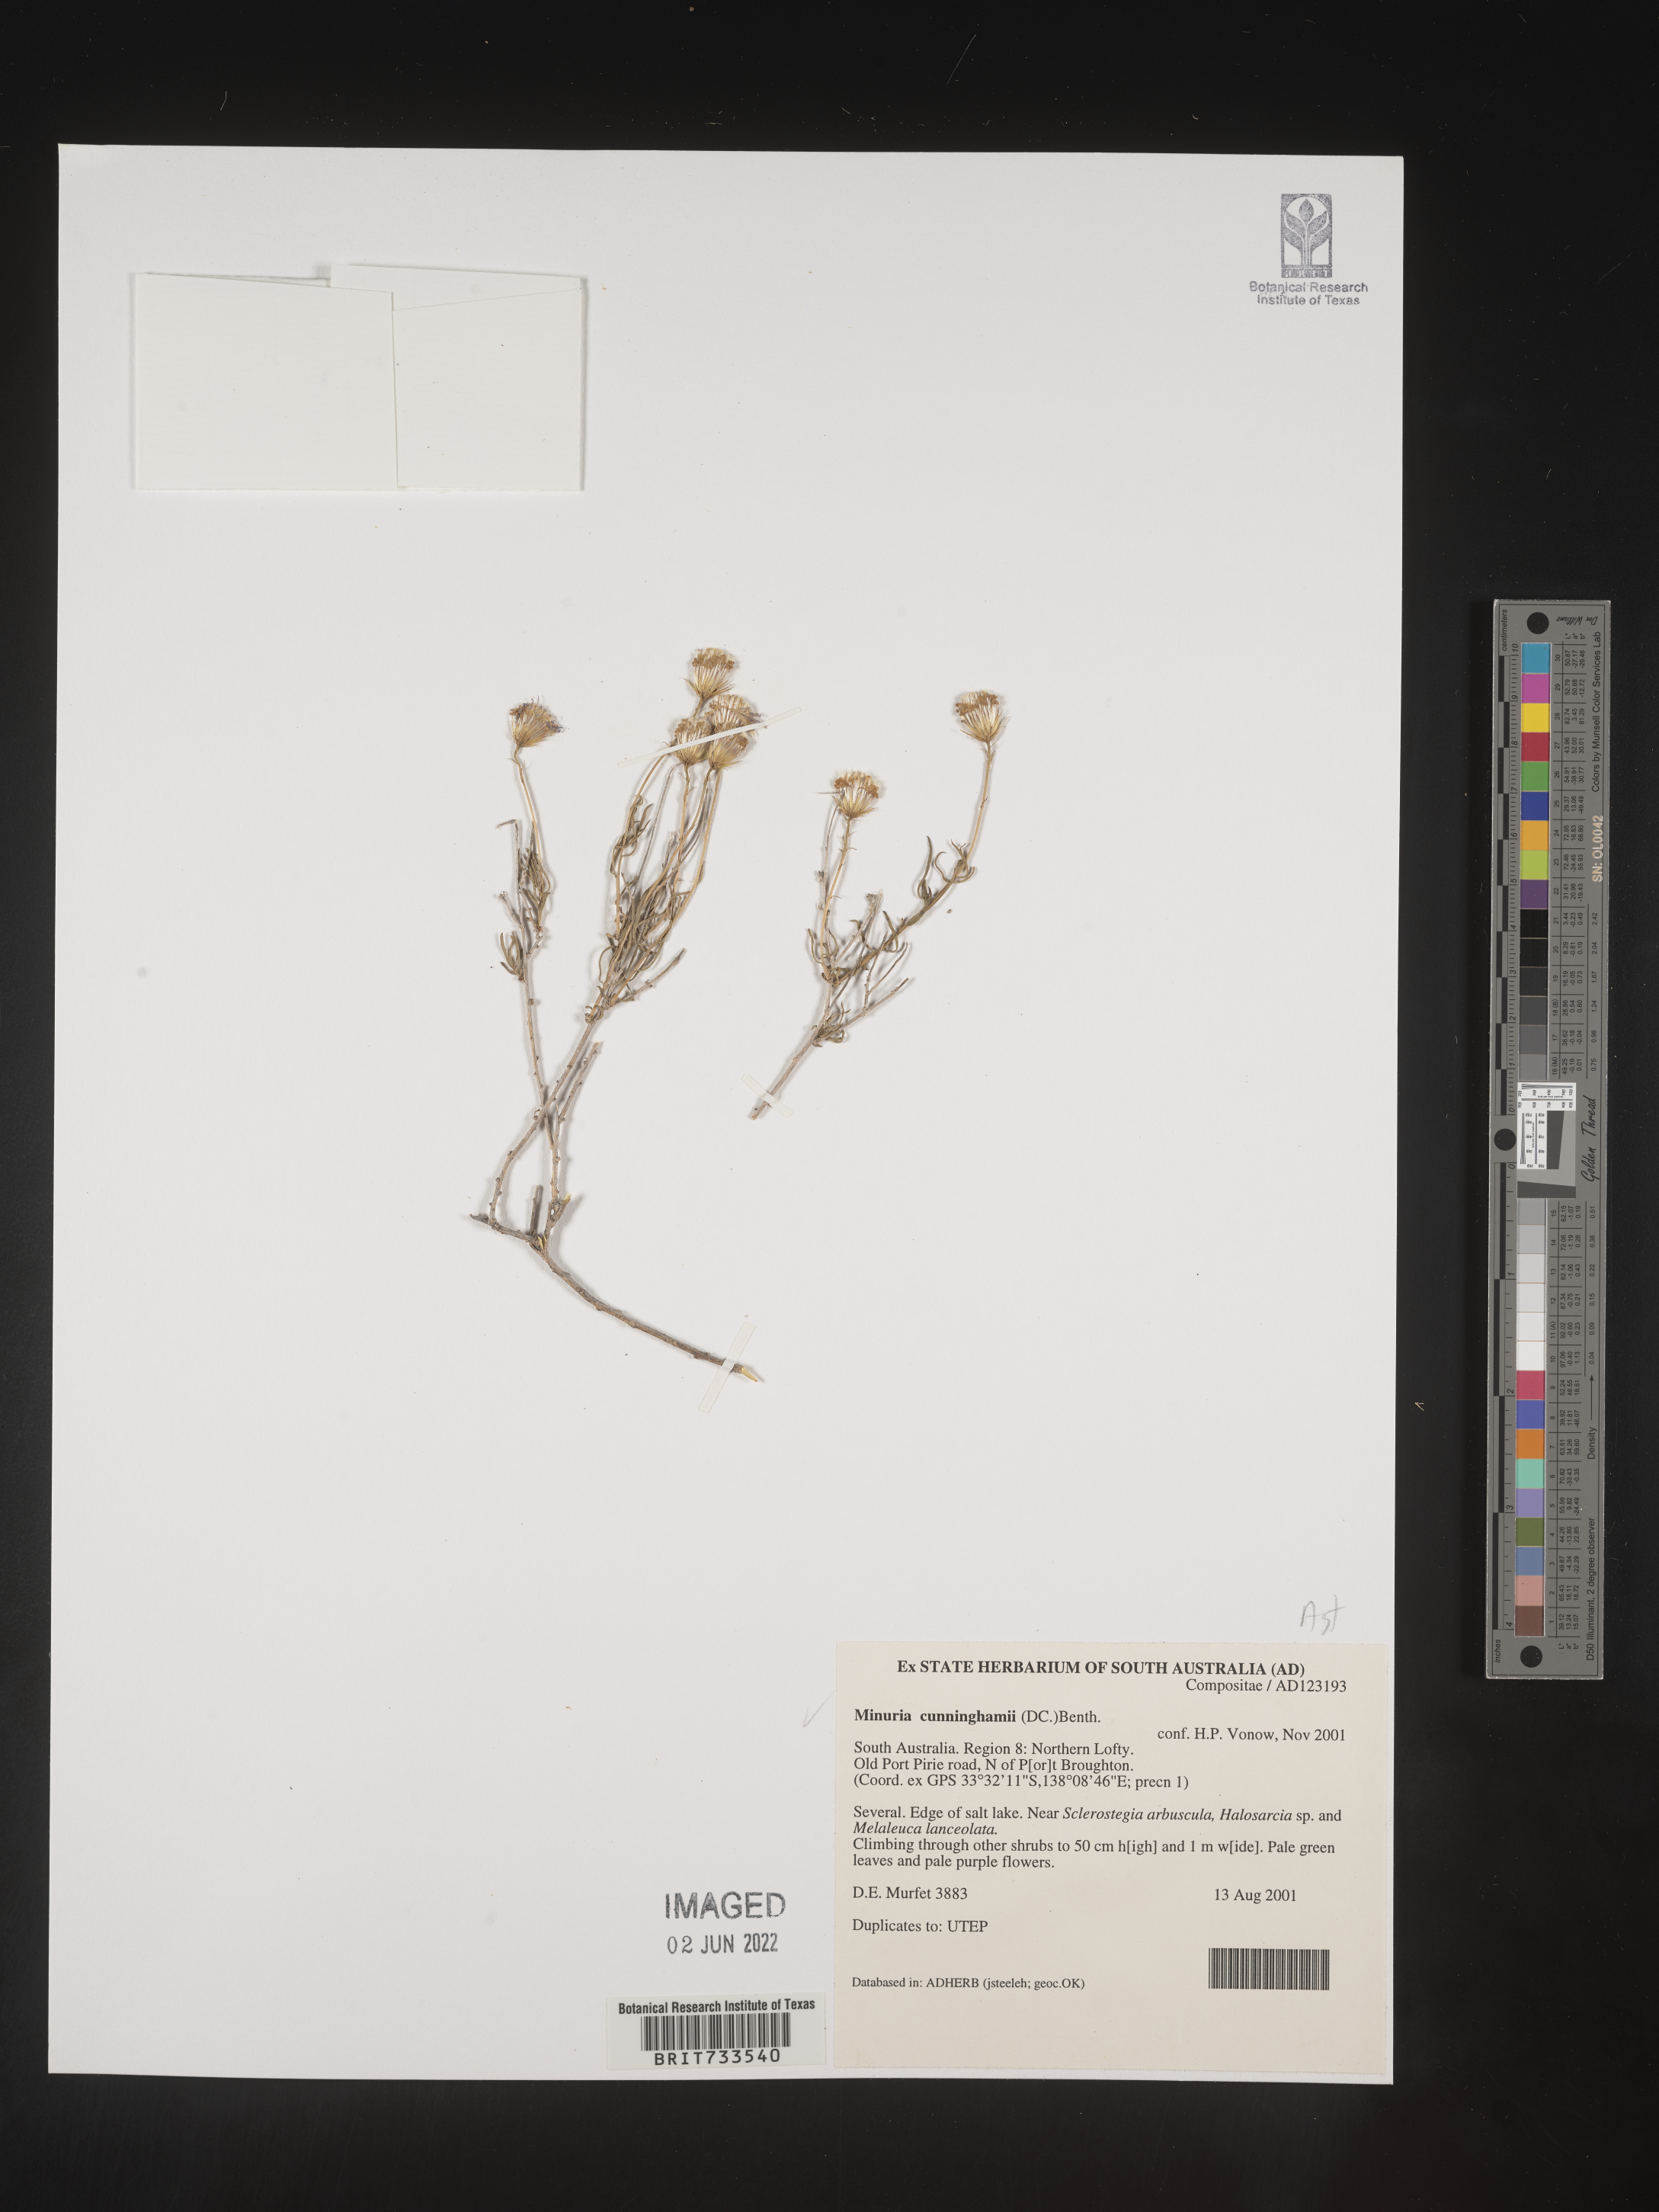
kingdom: Plantae
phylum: Tracheophyta
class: Magnoliopsida
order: Gentianales
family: Apocynaceae
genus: Minaria
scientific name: Minaria
